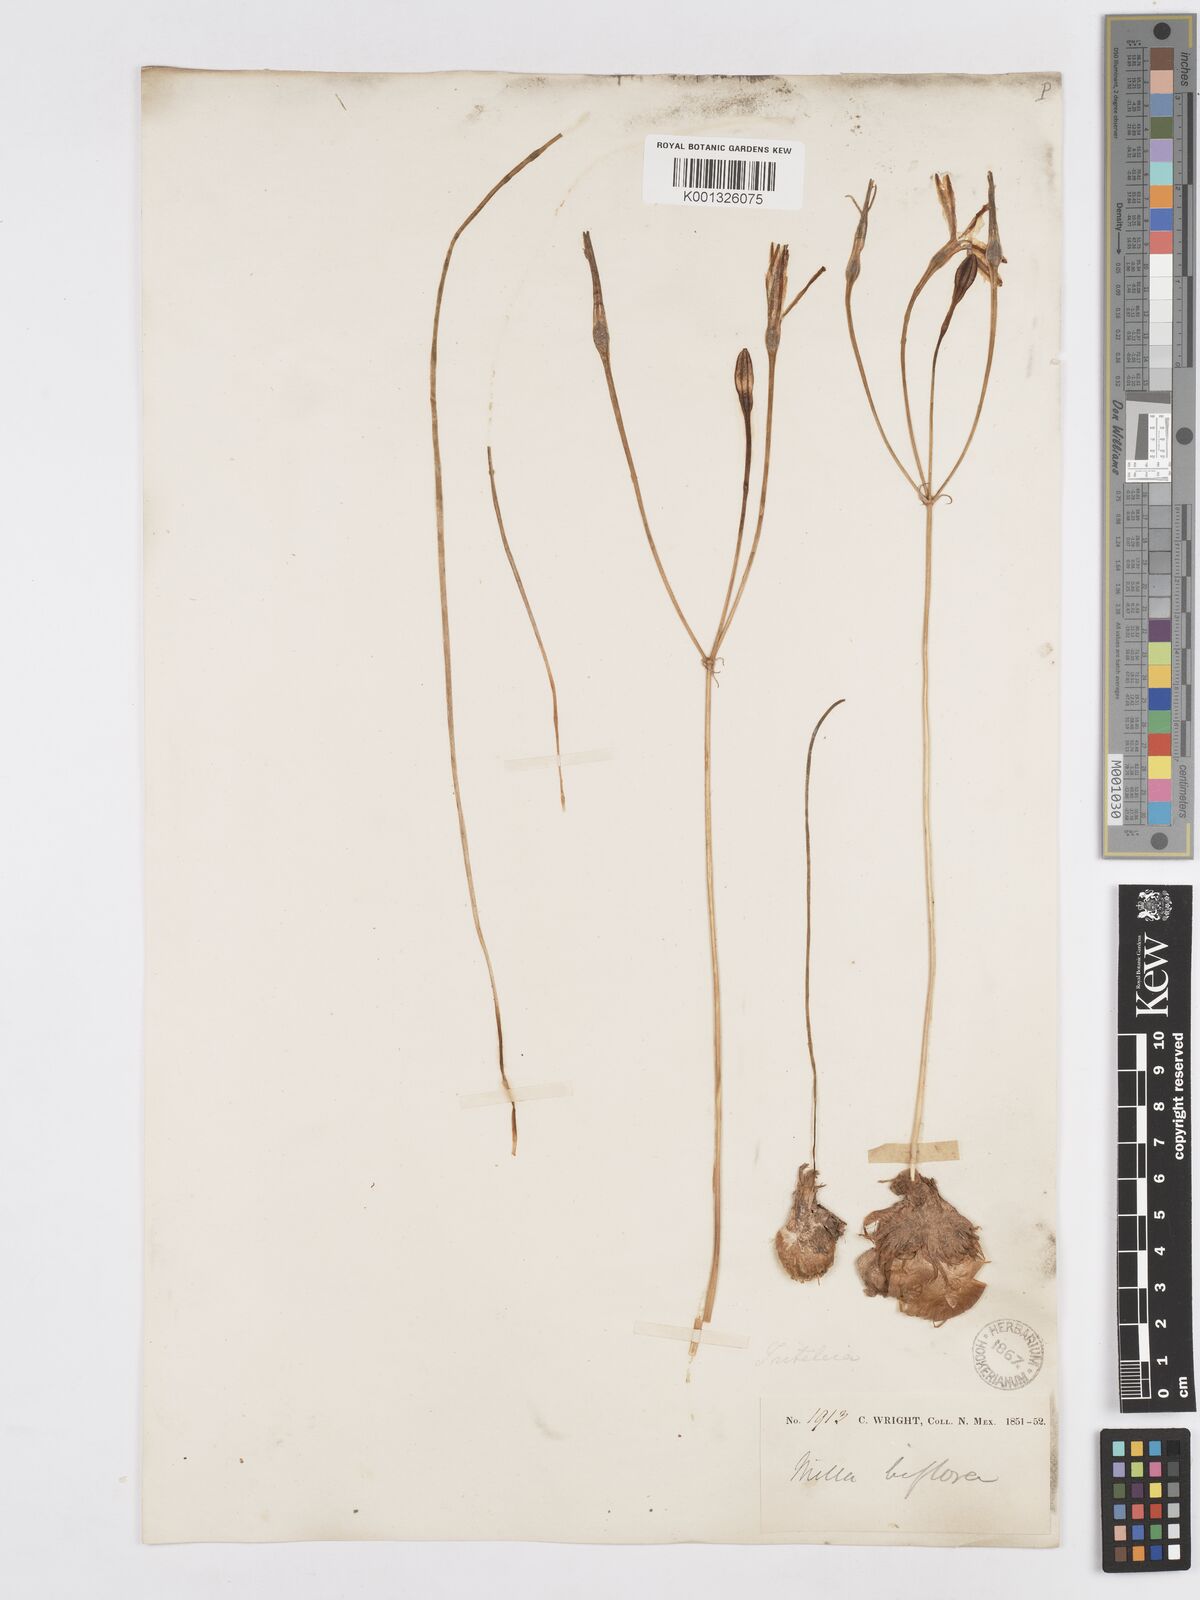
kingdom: Plantae
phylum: Tracheophyta
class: Liliopsida
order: Asparagales
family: Asparagaceae
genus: Milla
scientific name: Milla biflora
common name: Mexican-star
